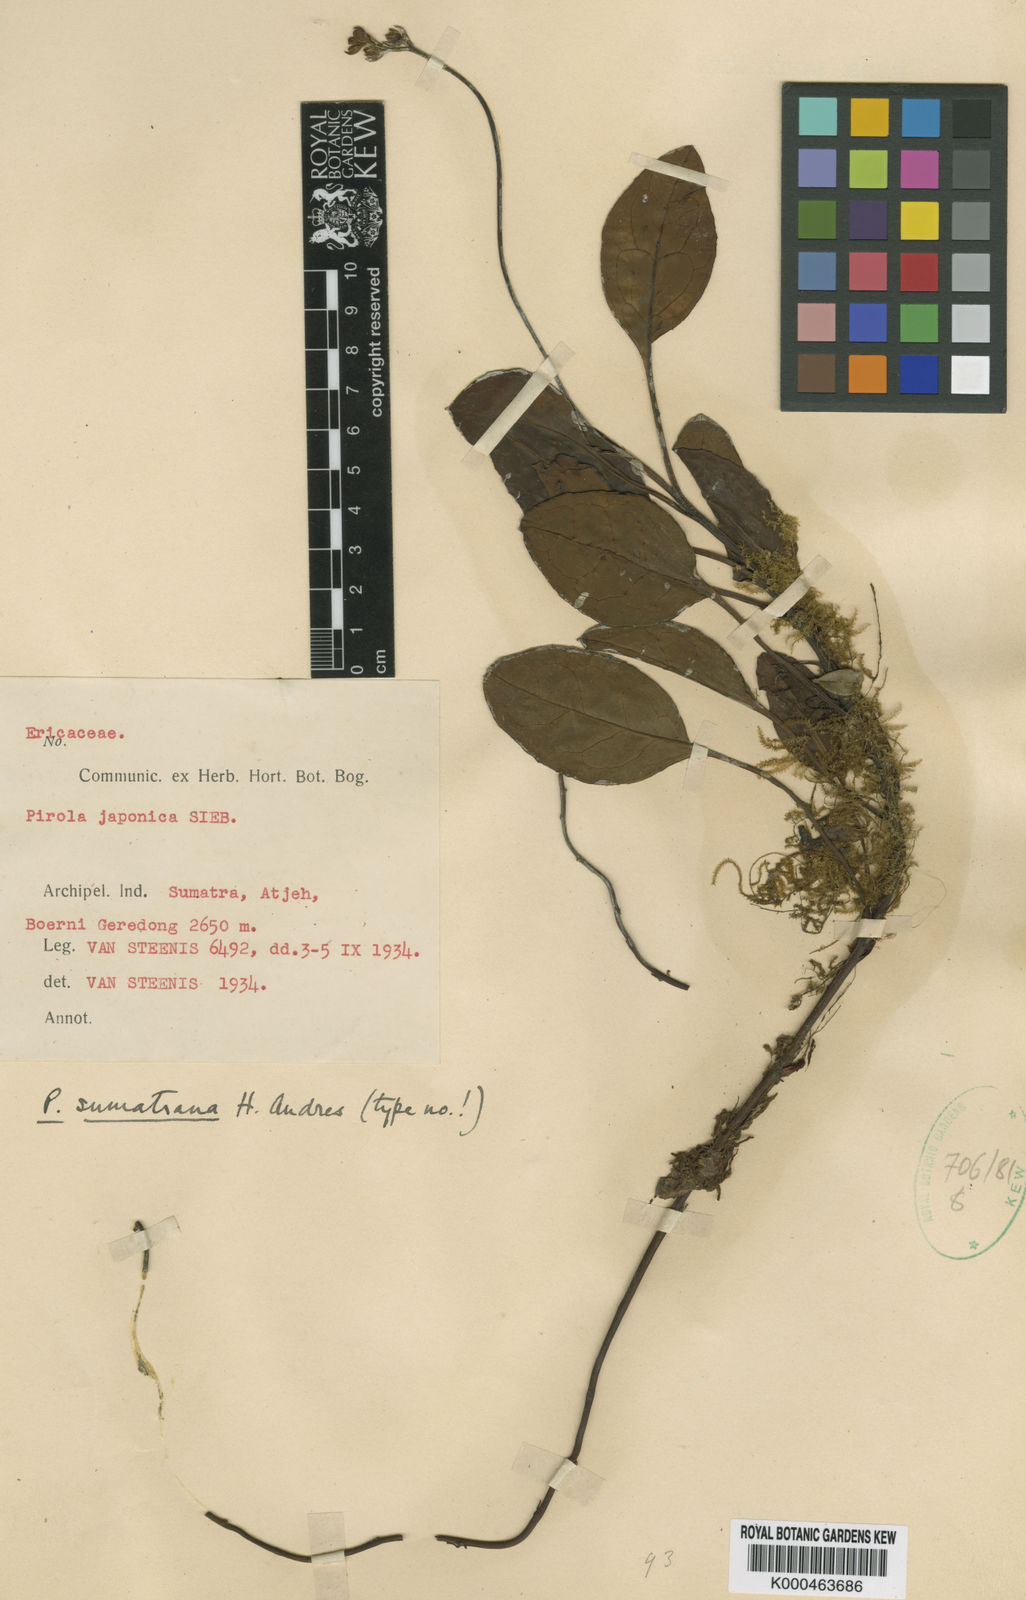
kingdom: Plantae
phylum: Tracheophyta
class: Magnoliopsida
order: Ericales
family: Ericaceae
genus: Pyrola
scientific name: Pyrola sumatrana
